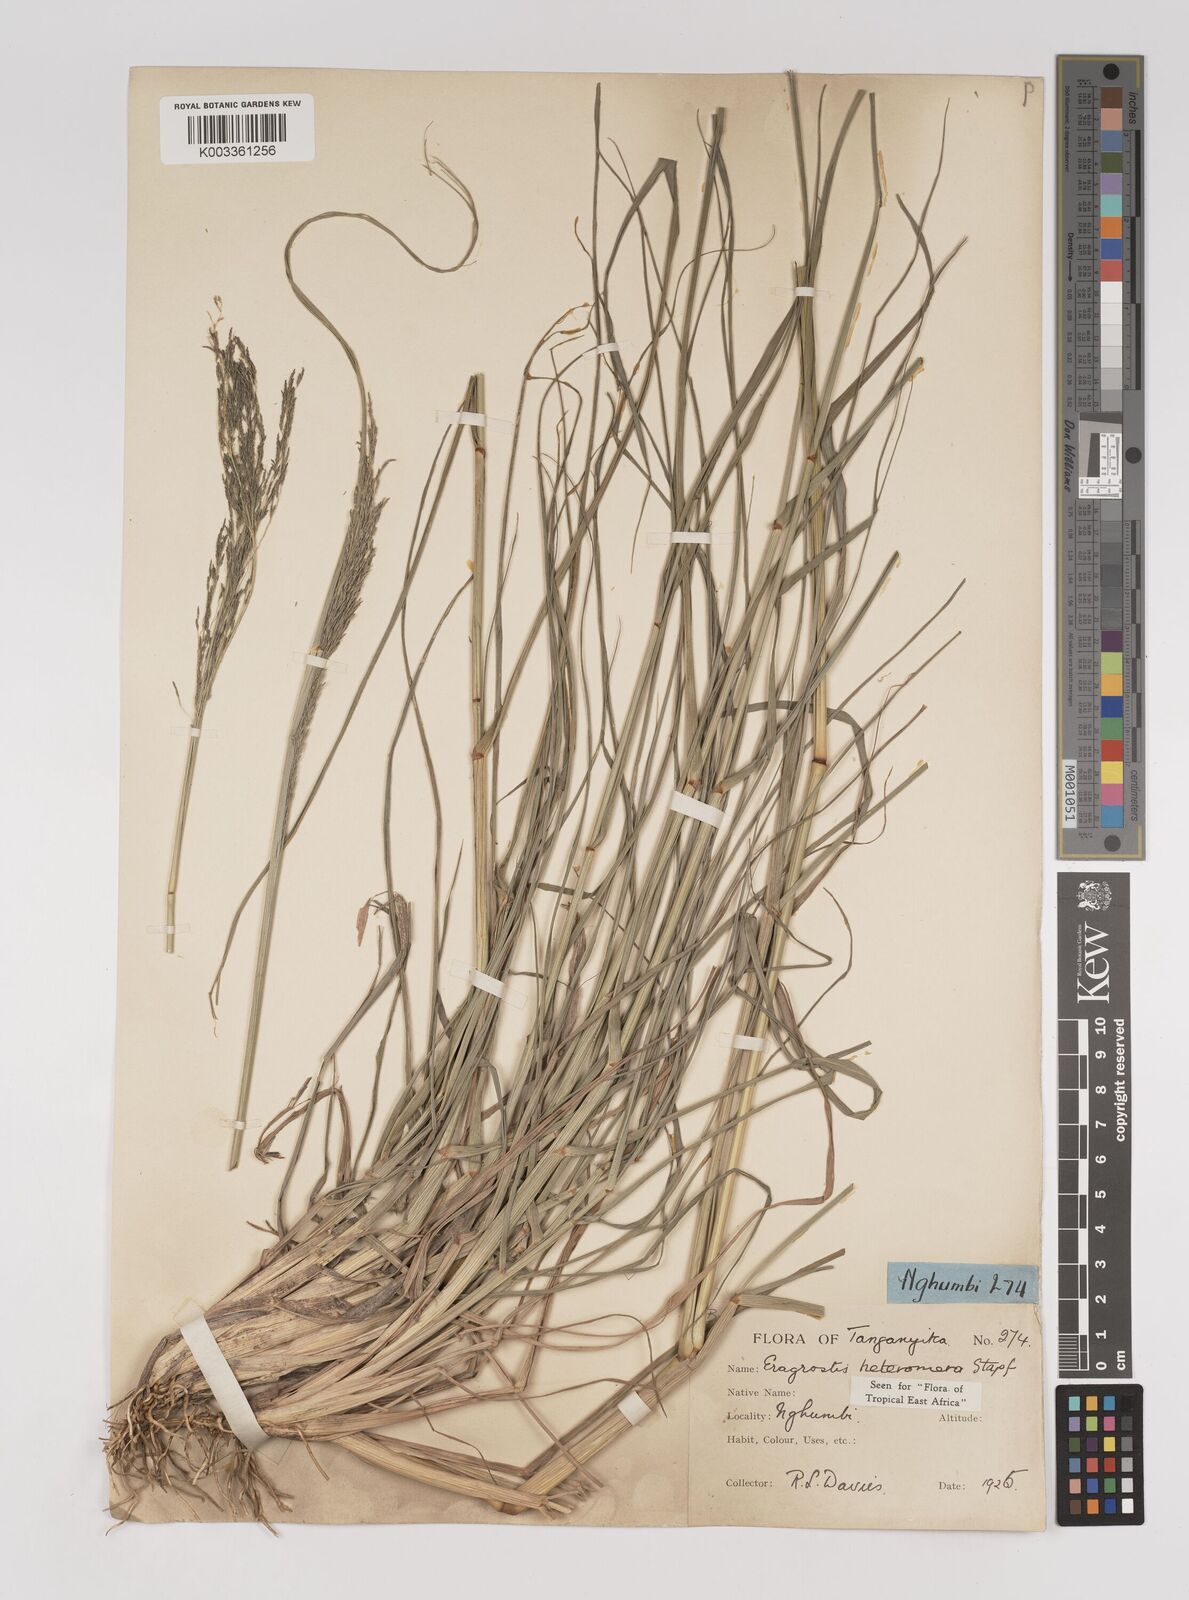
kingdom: Plantae
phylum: Tracheophyta
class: Liliopsida
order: Poales
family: Poaceae
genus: Eragrostis
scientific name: Eragrostis heteromera
